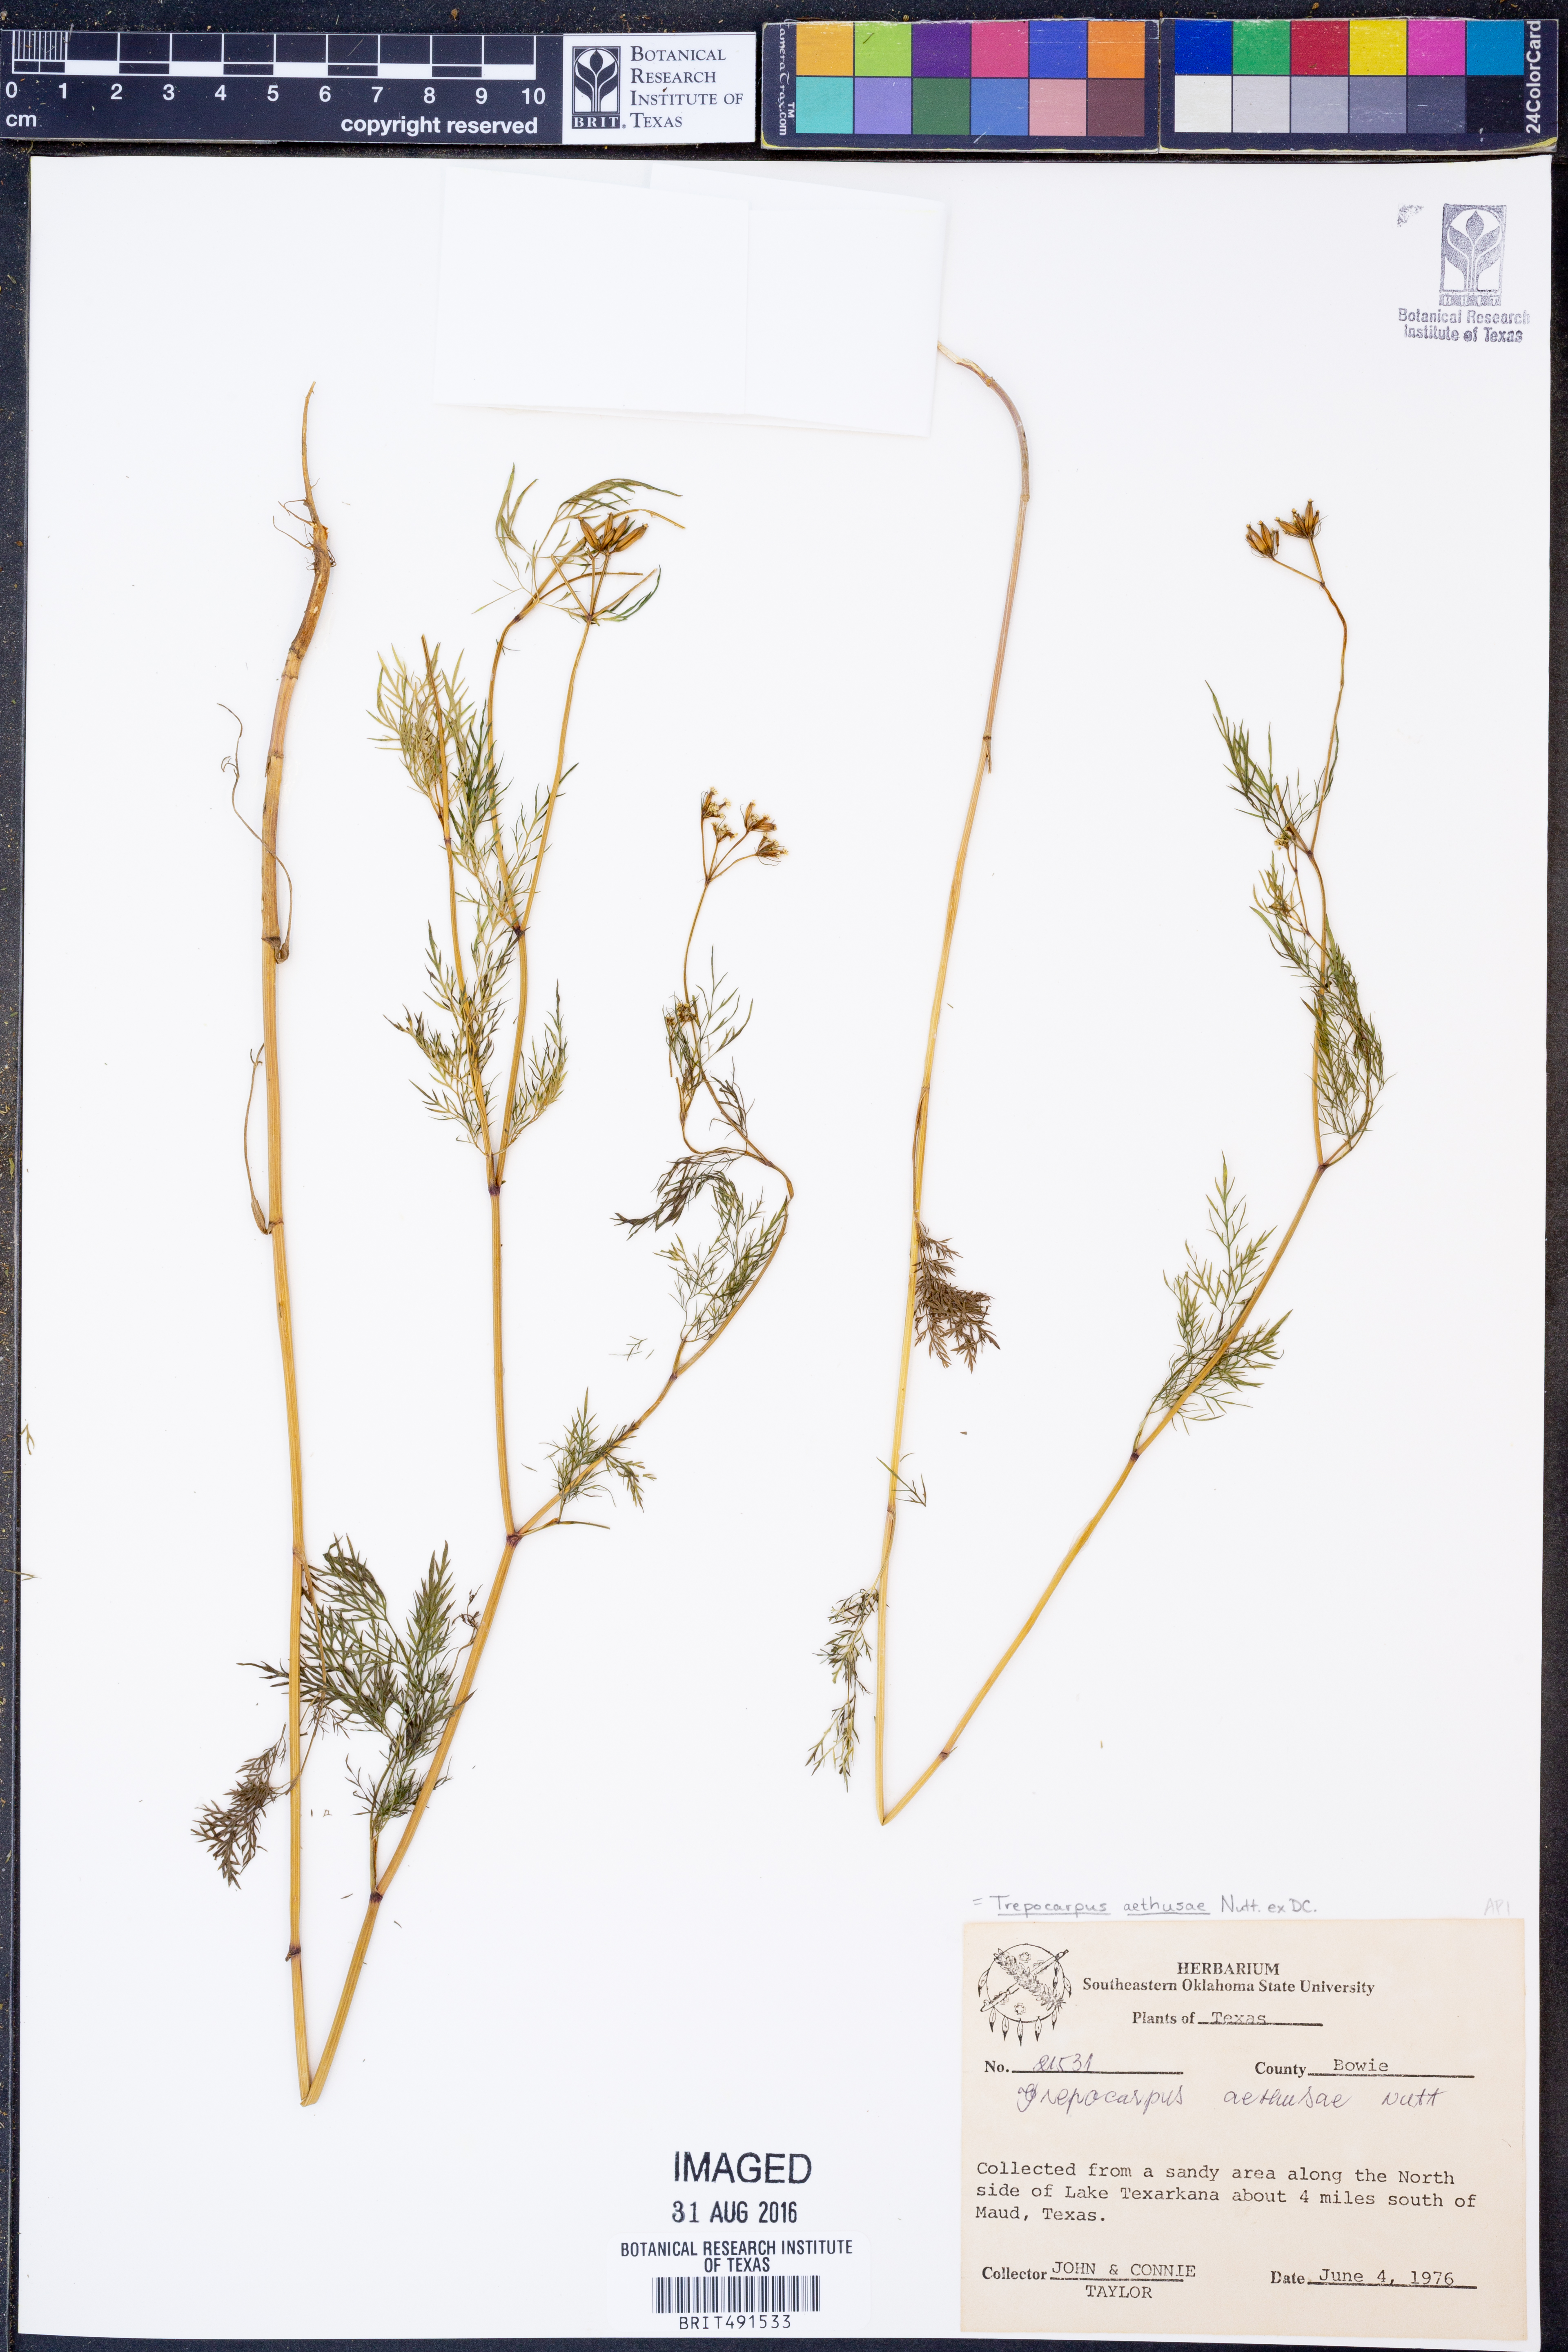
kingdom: Plantae
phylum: Tracheophyta
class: Magnoliopsida
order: Apiales
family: Apiaceae
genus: Trepocarpus
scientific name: Trepocarpus aethusae
